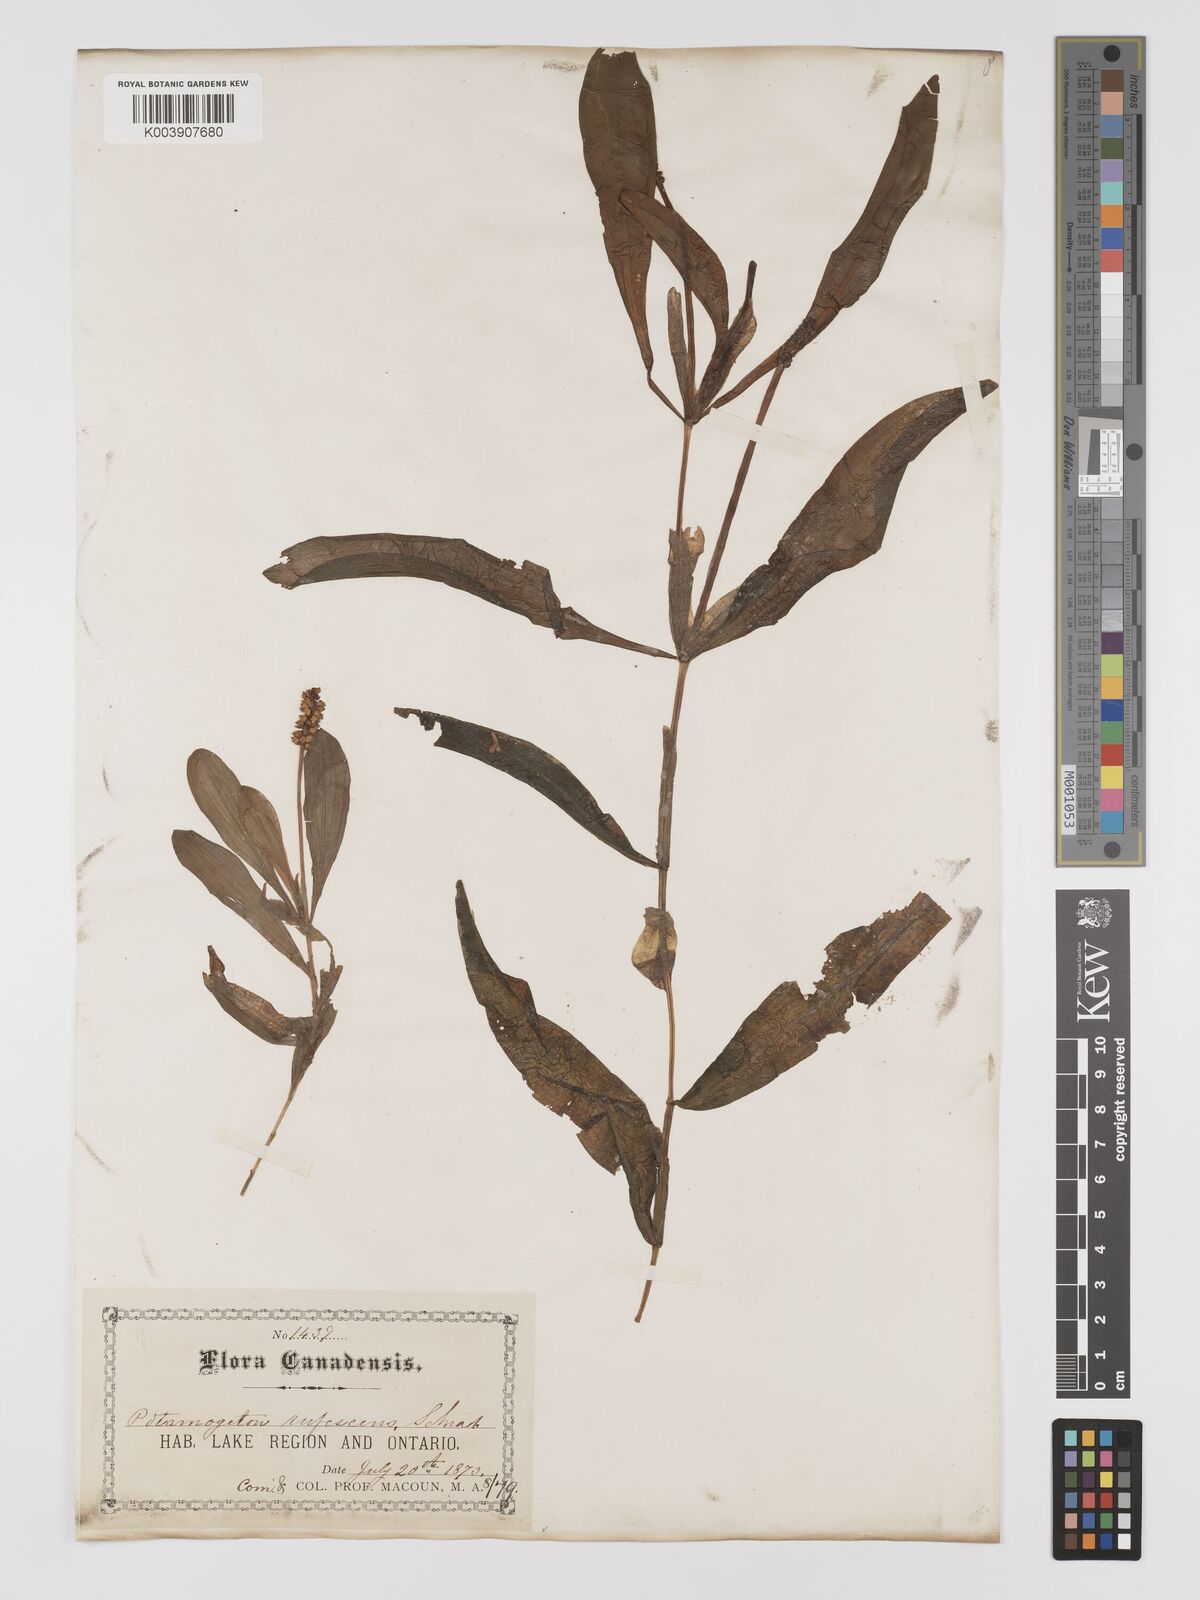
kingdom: Plantae
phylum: Tracheophyta
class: Liliopsida
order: Alismatales
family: Potamogetonaceae
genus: Potamogeton
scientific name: Potamogeton alpinus
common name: Red pondweed
